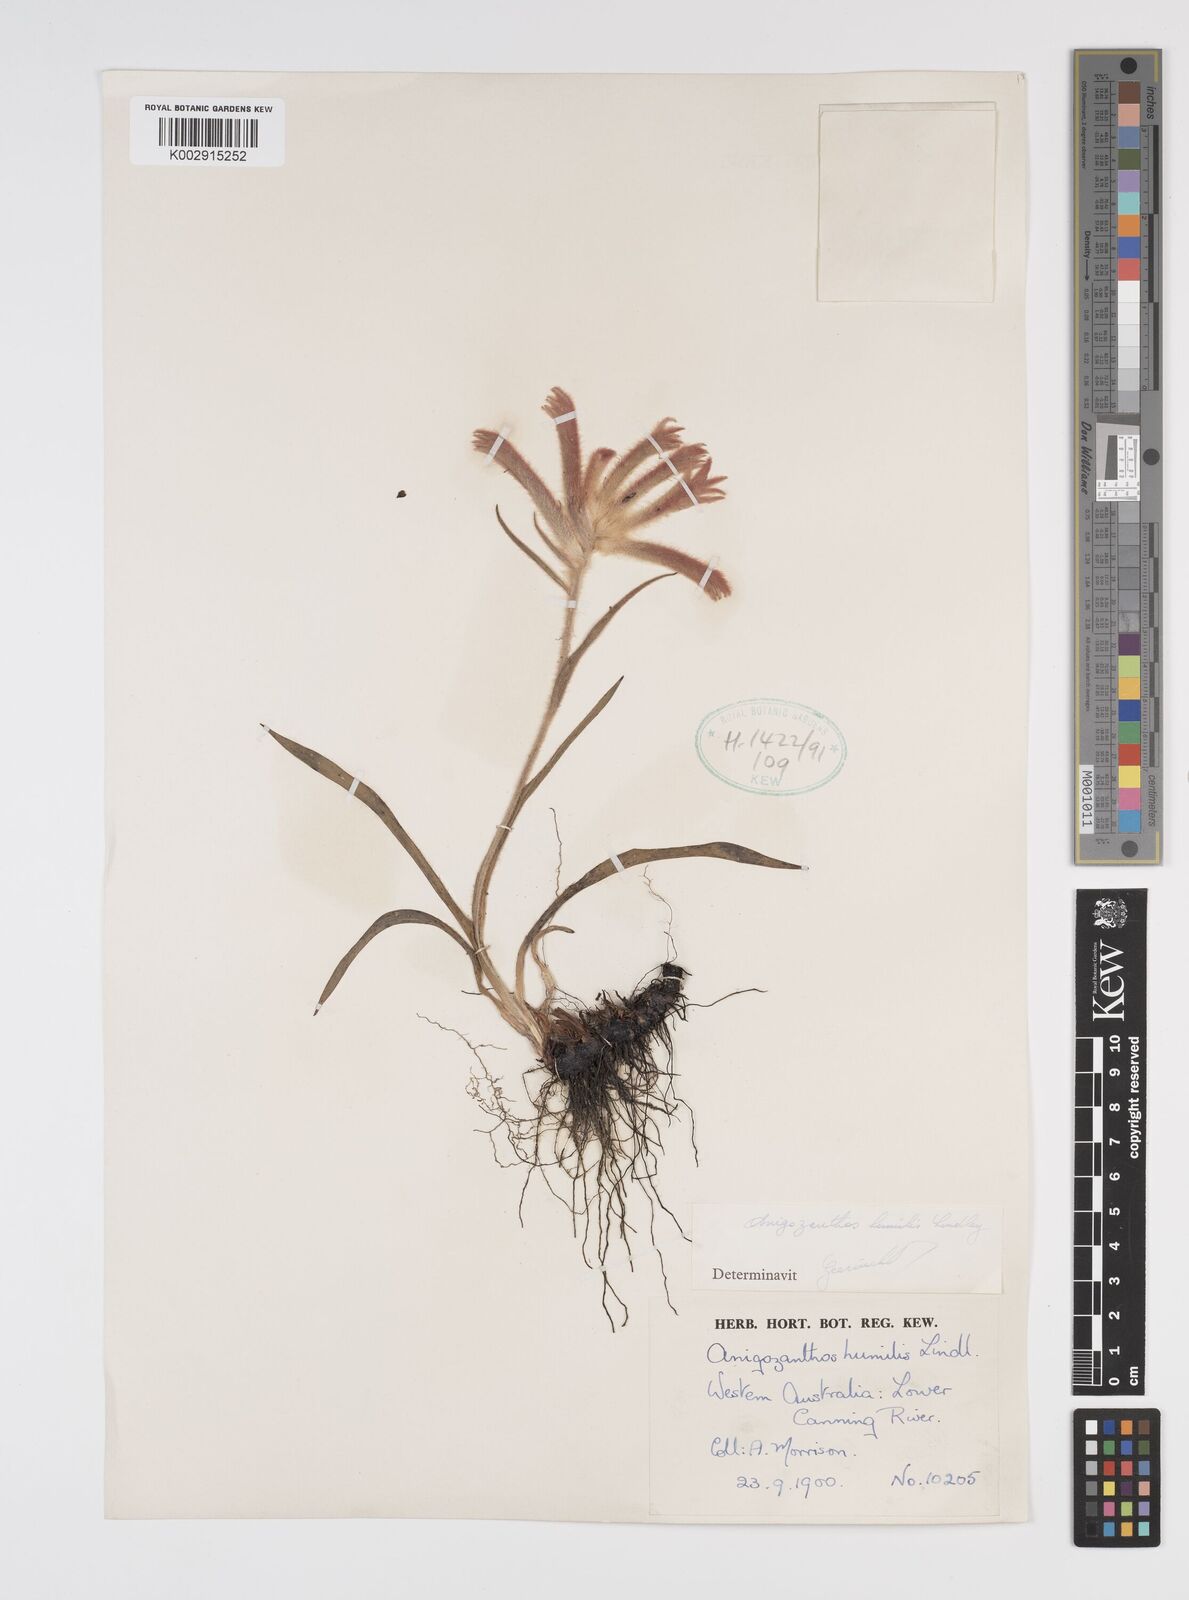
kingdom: Plantae
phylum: Tracheophyta
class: Liliopsida
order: Commelinales
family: Haemodoraceae
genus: Anigozanthos
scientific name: Anigozanthos humilis
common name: Cat's-paw
